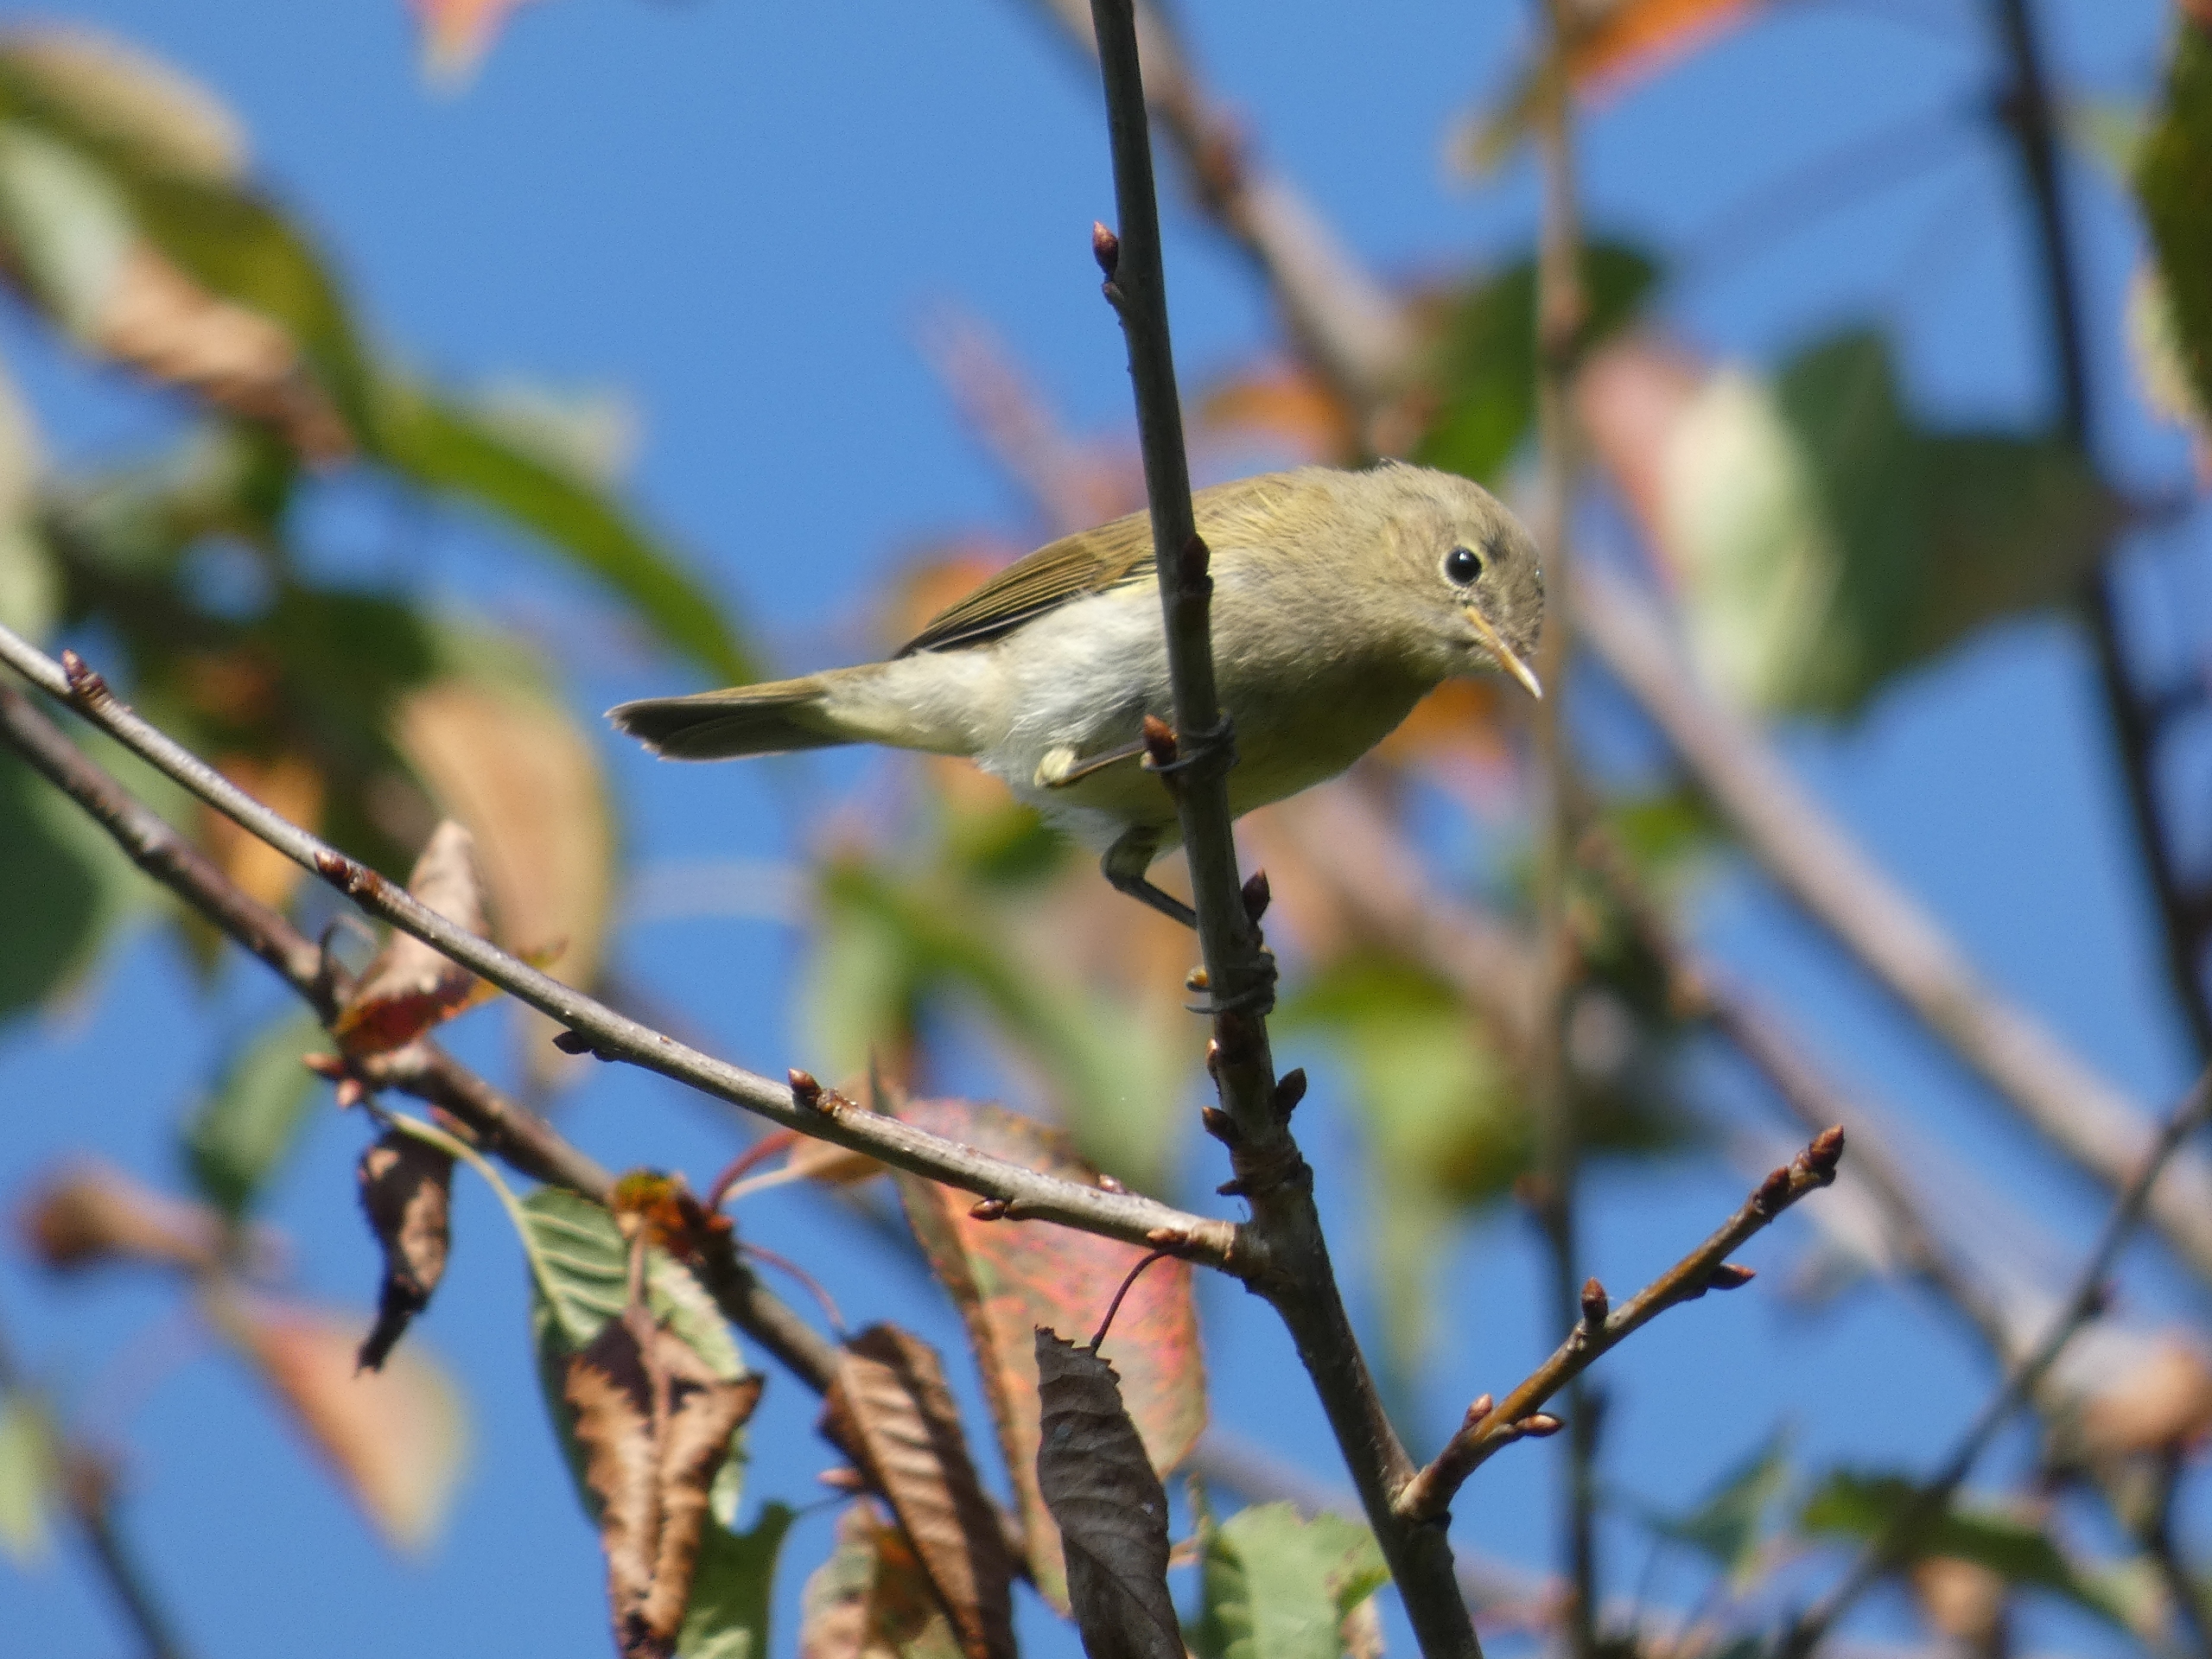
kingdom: Animalia
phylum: Chordata
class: Aves
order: Passeriformes
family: Phylloscopidae
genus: Phylloscopus
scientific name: Phylloscopus collybita
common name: Gransanger
